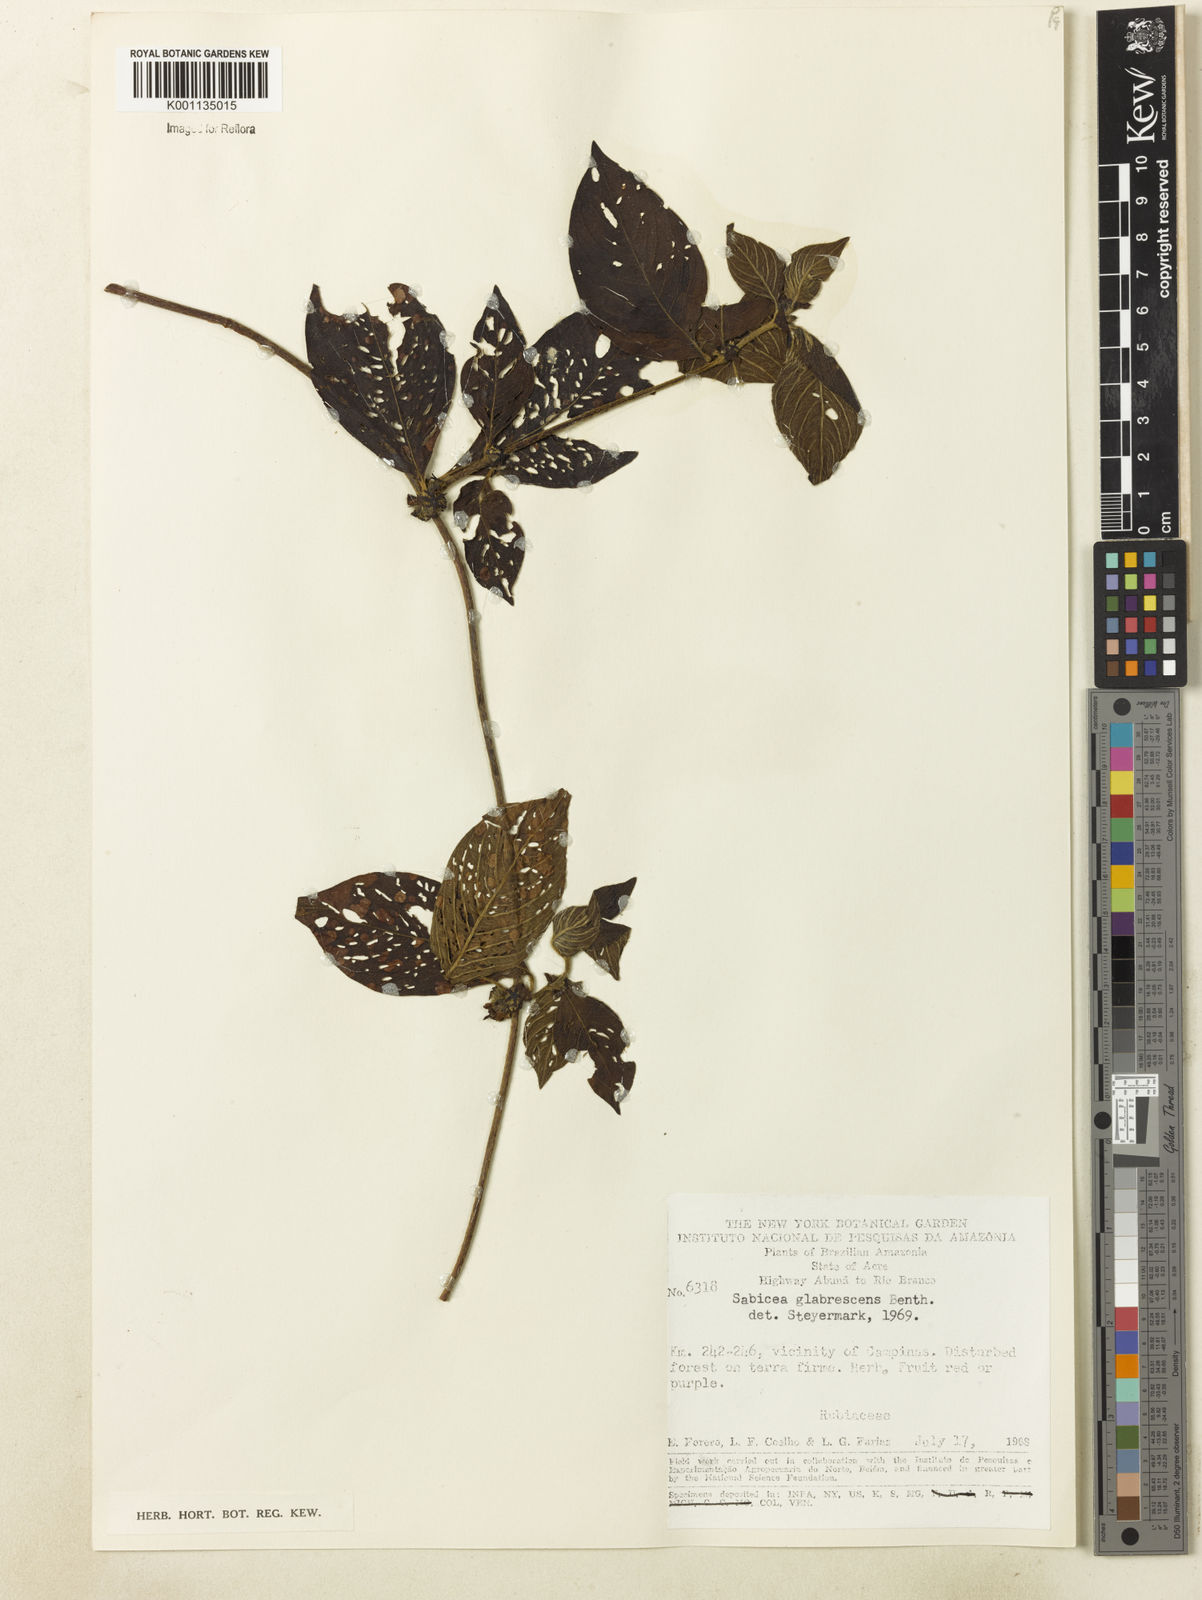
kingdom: Plantae
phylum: Tracheophyta
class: Magnoliopsida
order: Gentianales
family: Rubiaceae
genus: Sabicea
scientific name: Sabicea glabrescens
